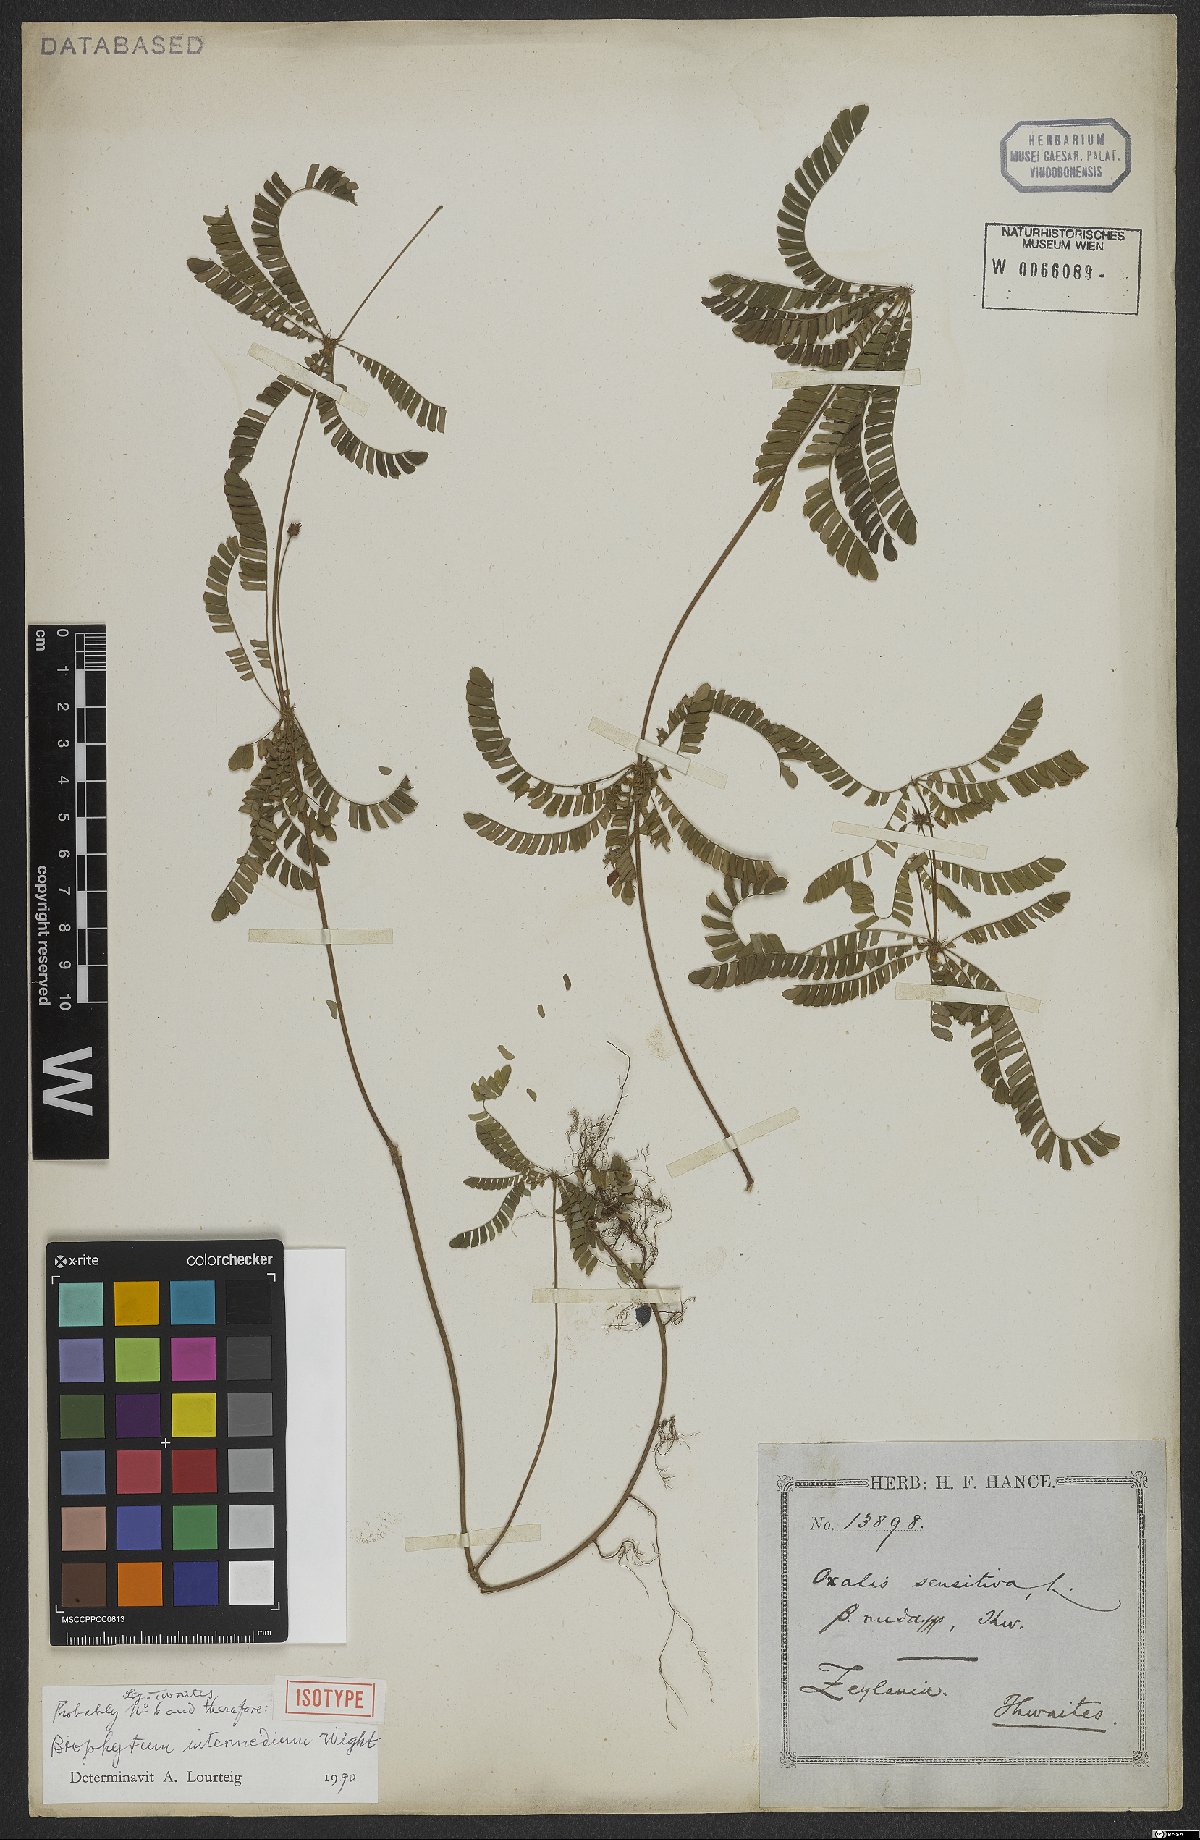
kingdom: Plantae
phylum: Tracheophyta
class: Magnoliopsida
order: Oxalidales
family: Oxalidaceae
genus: Biophytum
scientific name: Biophytum intermedium
